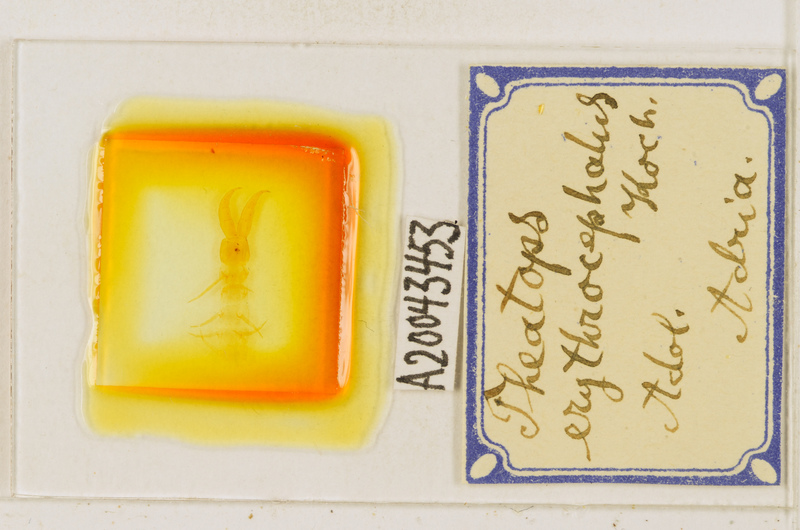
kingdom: Animalia
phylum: Arthropoda
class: Chilopoda
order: Scolopendromorpha
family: Cryptopidae
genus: Theatops
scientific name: Theatops erythrocephalus
